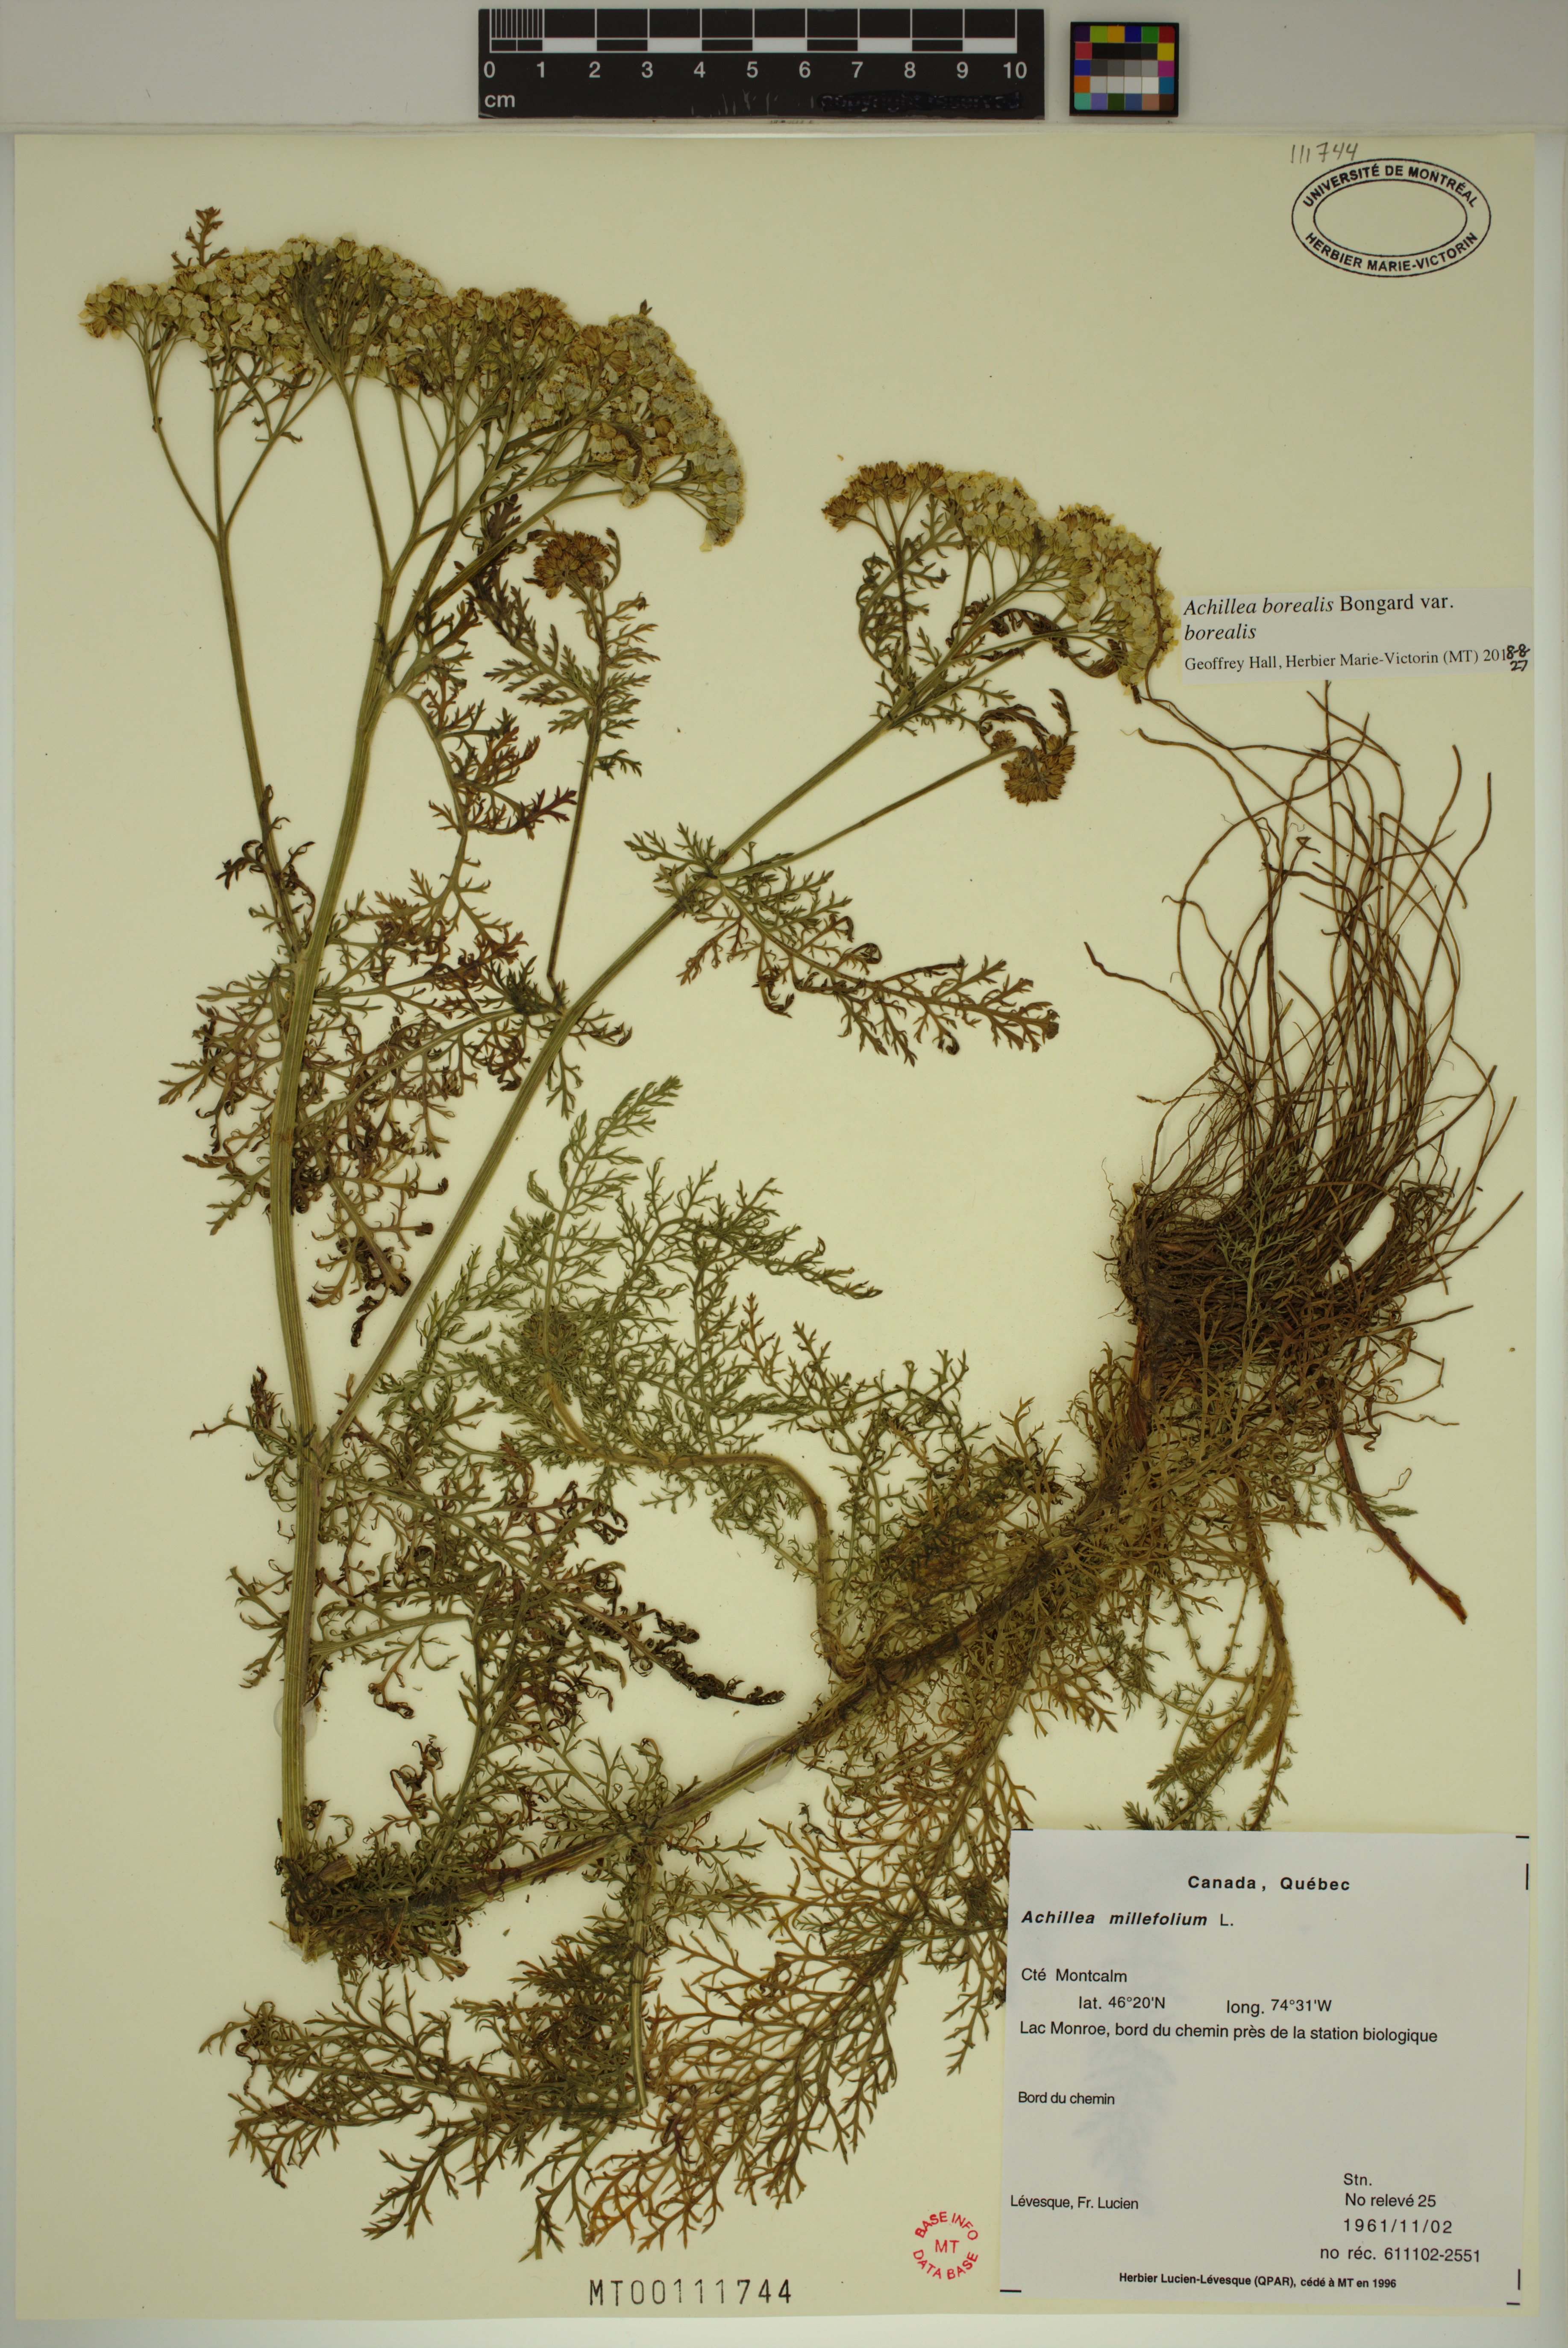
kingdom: Plantae
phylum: Tracheophyta
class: Magnoliopsida
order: Asterales
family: Asteraceae
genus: Achillea
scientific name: Achillea millefolium
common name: Yarrow
